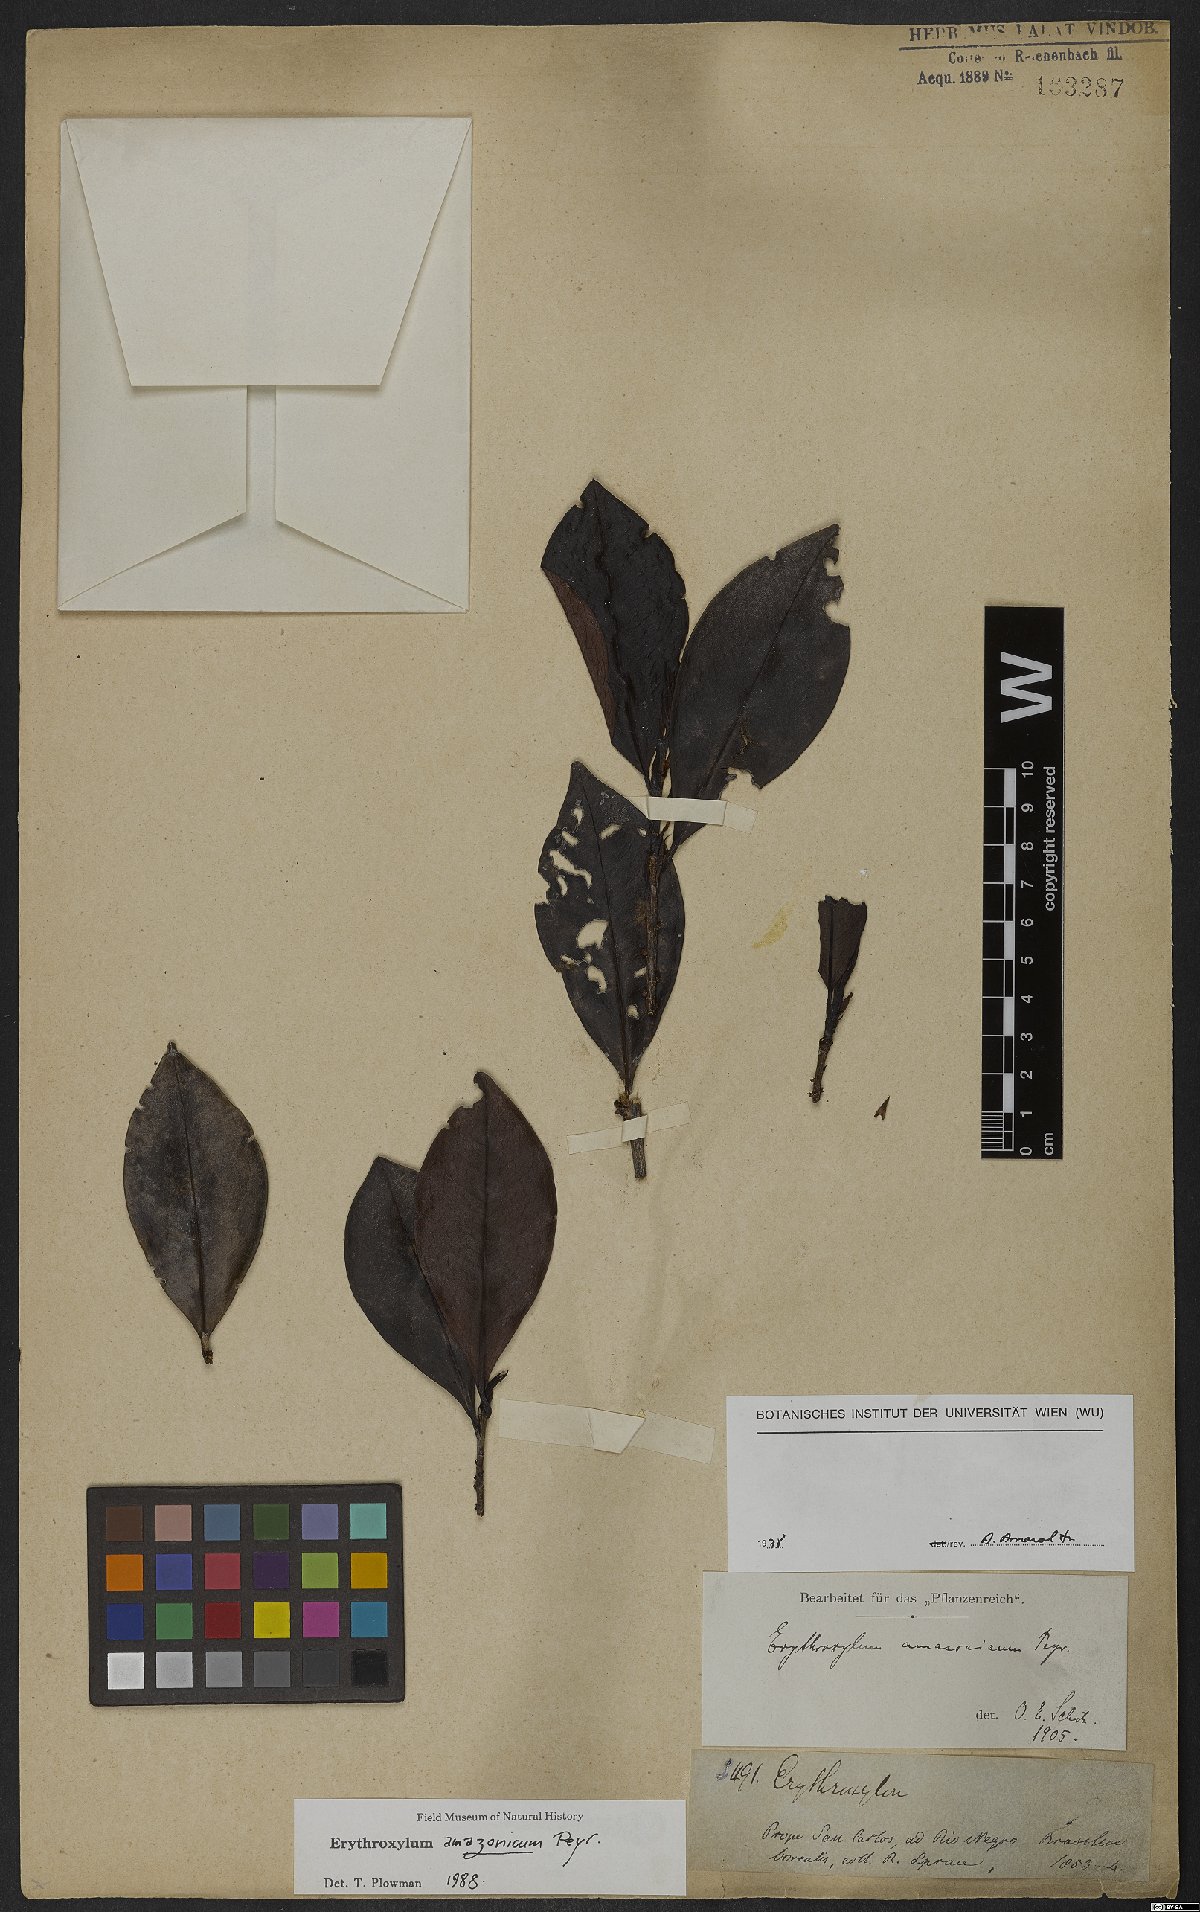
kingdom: Plantae
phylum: Tracheophyta
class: Magnoliopsida
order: Malpighiales
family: Erythroxylaceae
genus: Erythroxylum
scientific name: Erythroxylum amazonicum
